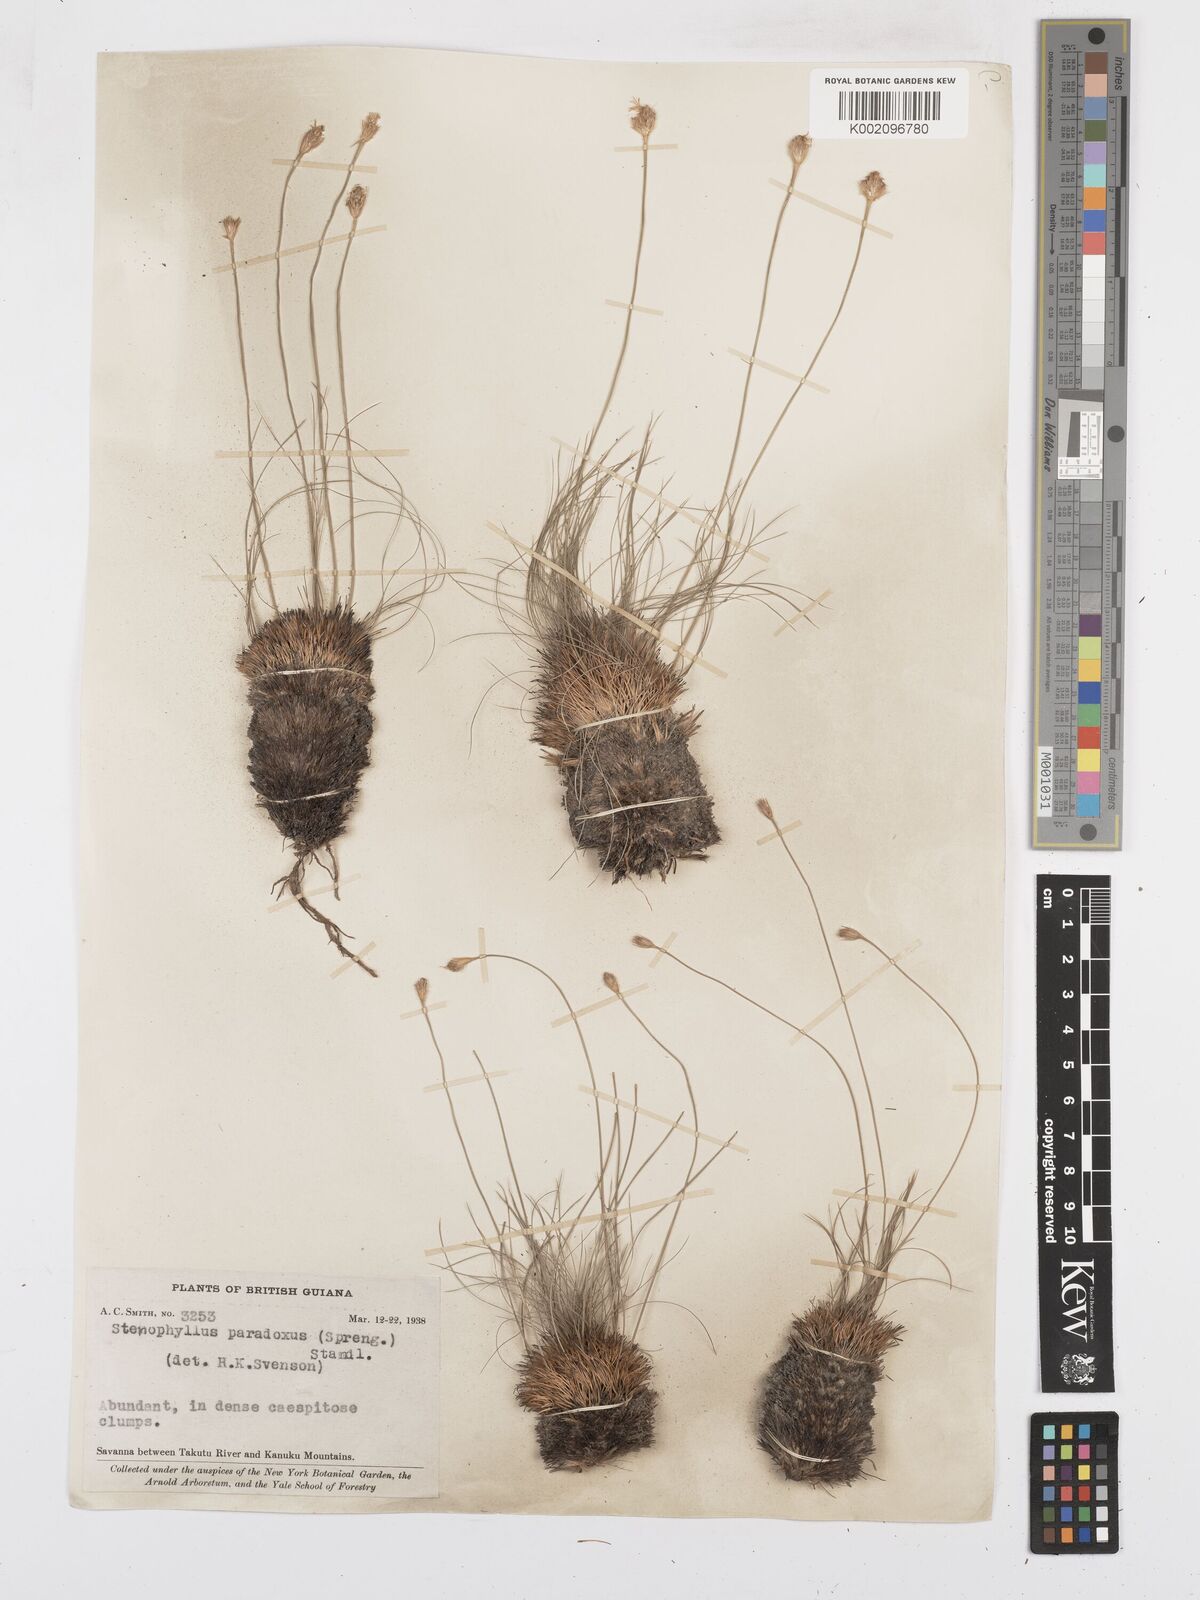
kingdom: Plantae
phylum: Tracheophyta
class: Liliopsida
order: Poales
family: Cyperaceae
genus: Bulbostylis
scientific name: Bulbostylis paradoxa
